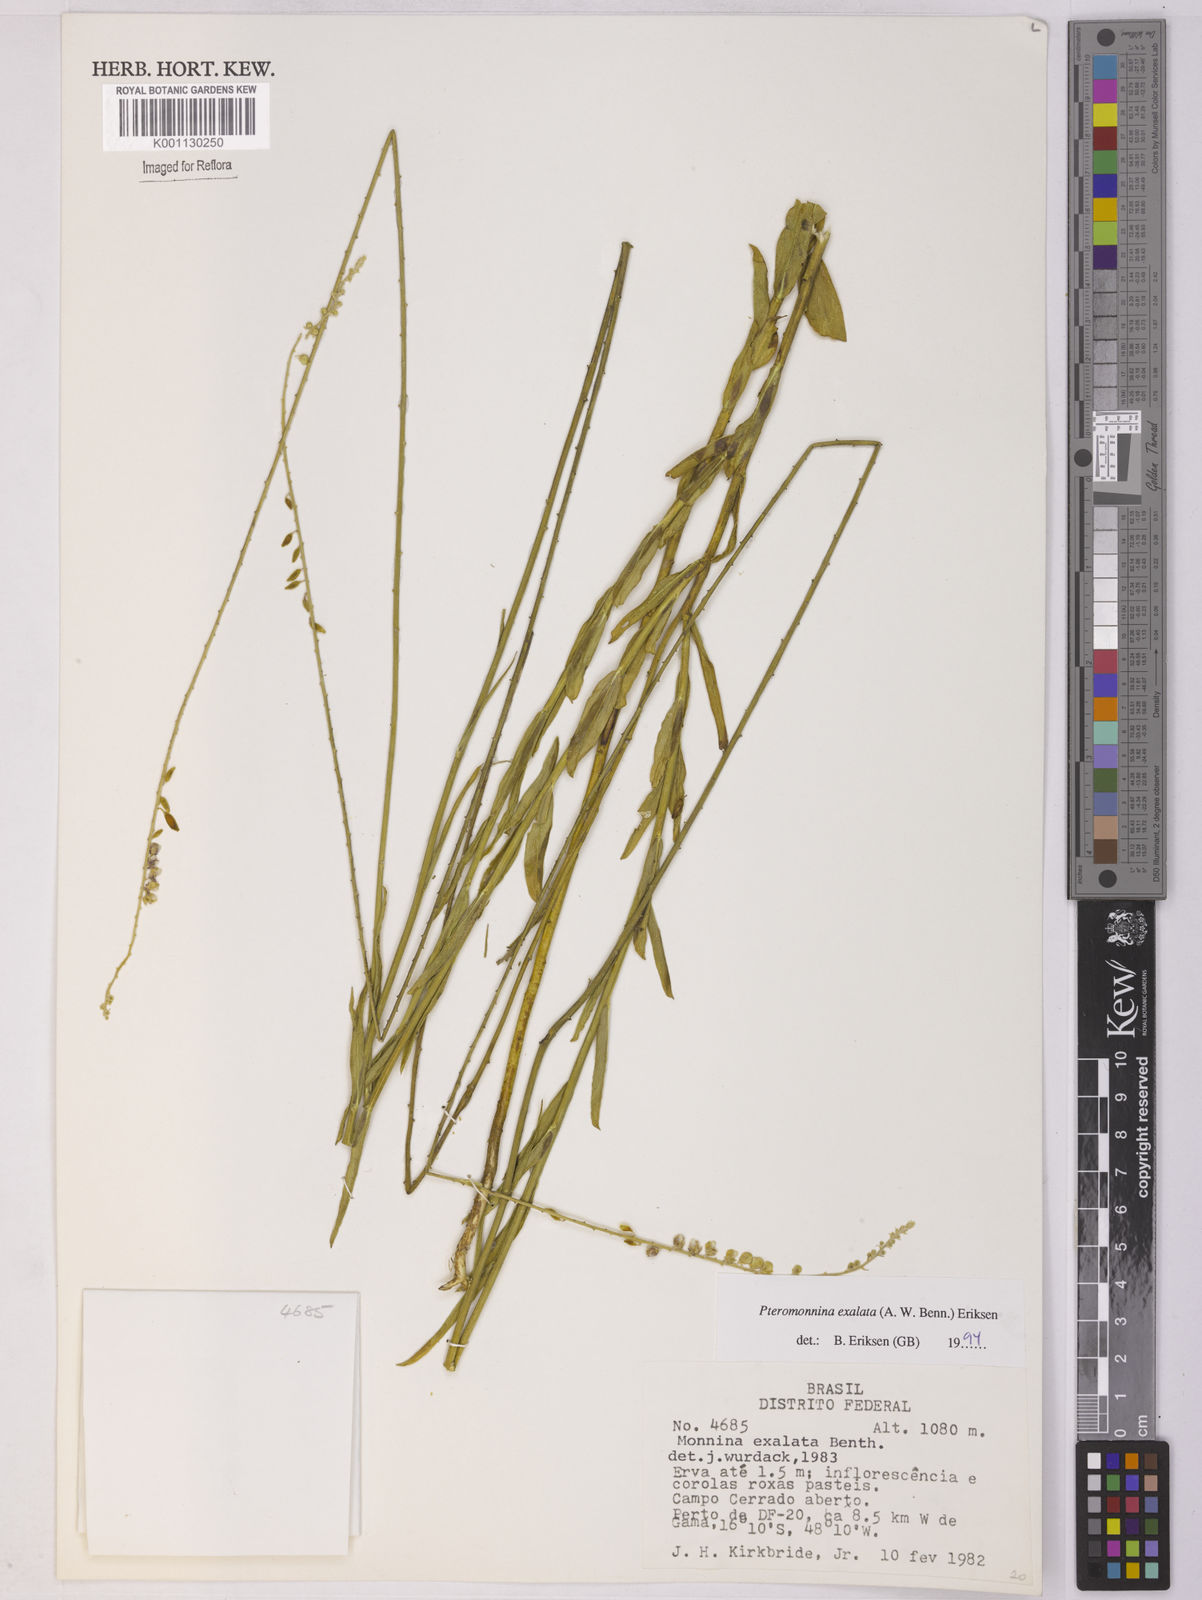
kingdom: Plantae
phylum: Tracheophyta
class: Magnoliopsida
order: Fabales
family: Polygalaceae
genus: Monnina
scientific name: Monnina exalata
